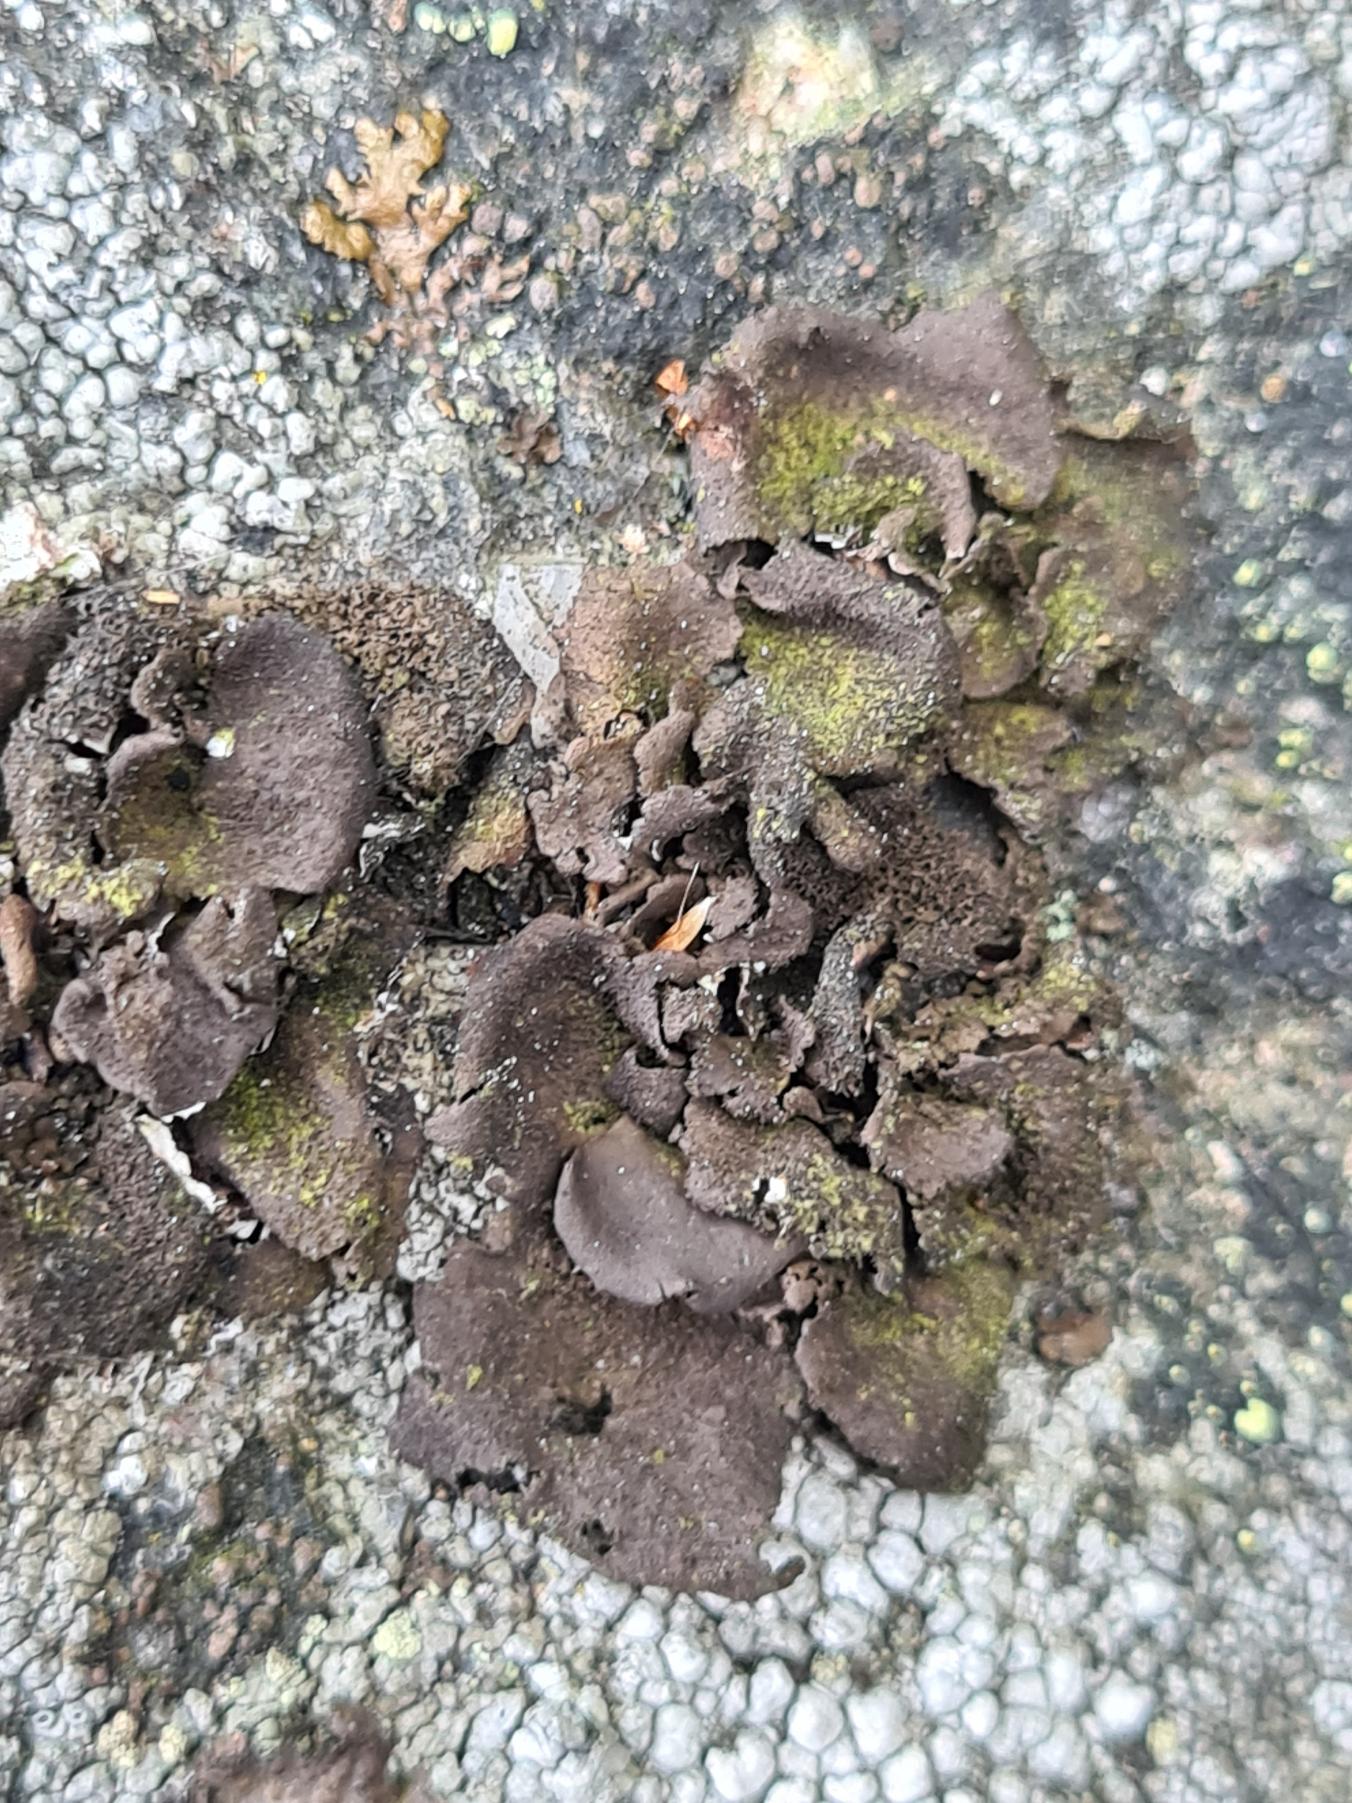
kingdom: Fungi
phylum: Ascomycota
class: Lecanoromycetes
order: Umbilicariales
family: Umbilicariaceae
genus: Umbilicaria
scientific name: Umbilicaria deusta
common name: Kliddet navlelav
